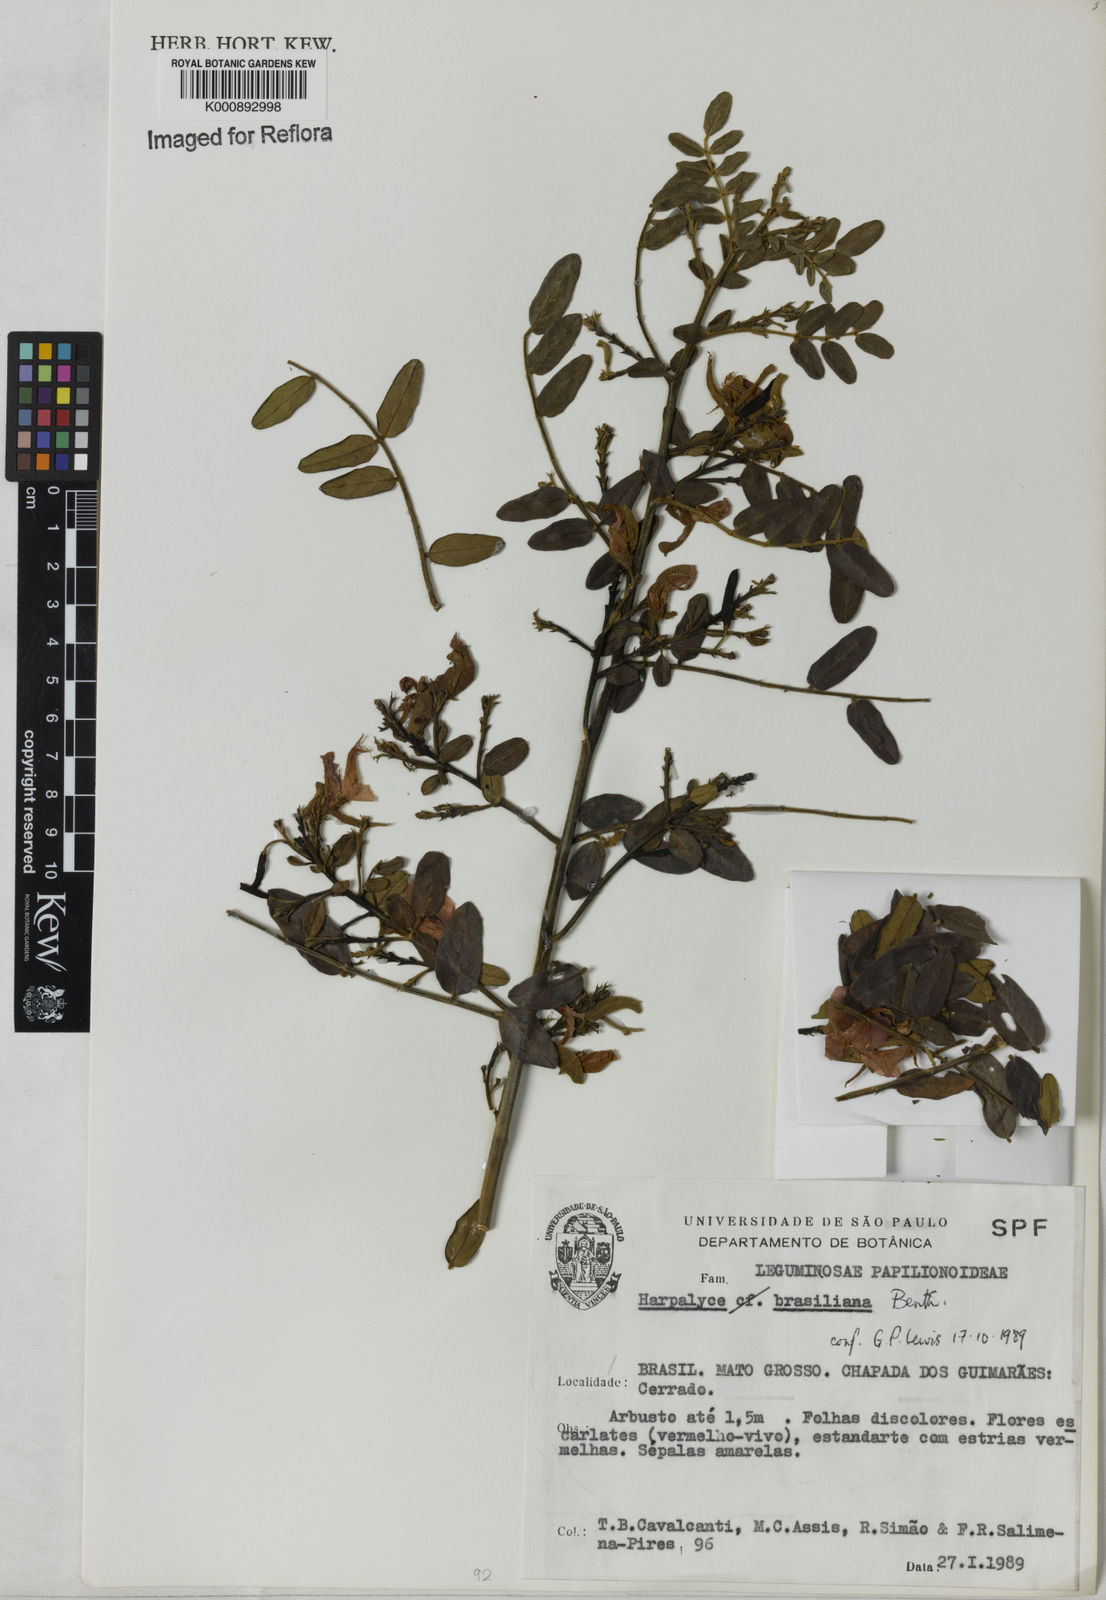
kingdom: Plantae
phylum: Tracheophyta
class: Magnoliopsida
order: Fabales
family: Fabaceae
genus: Harpalyce
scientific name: Harpalyce brasiliana
